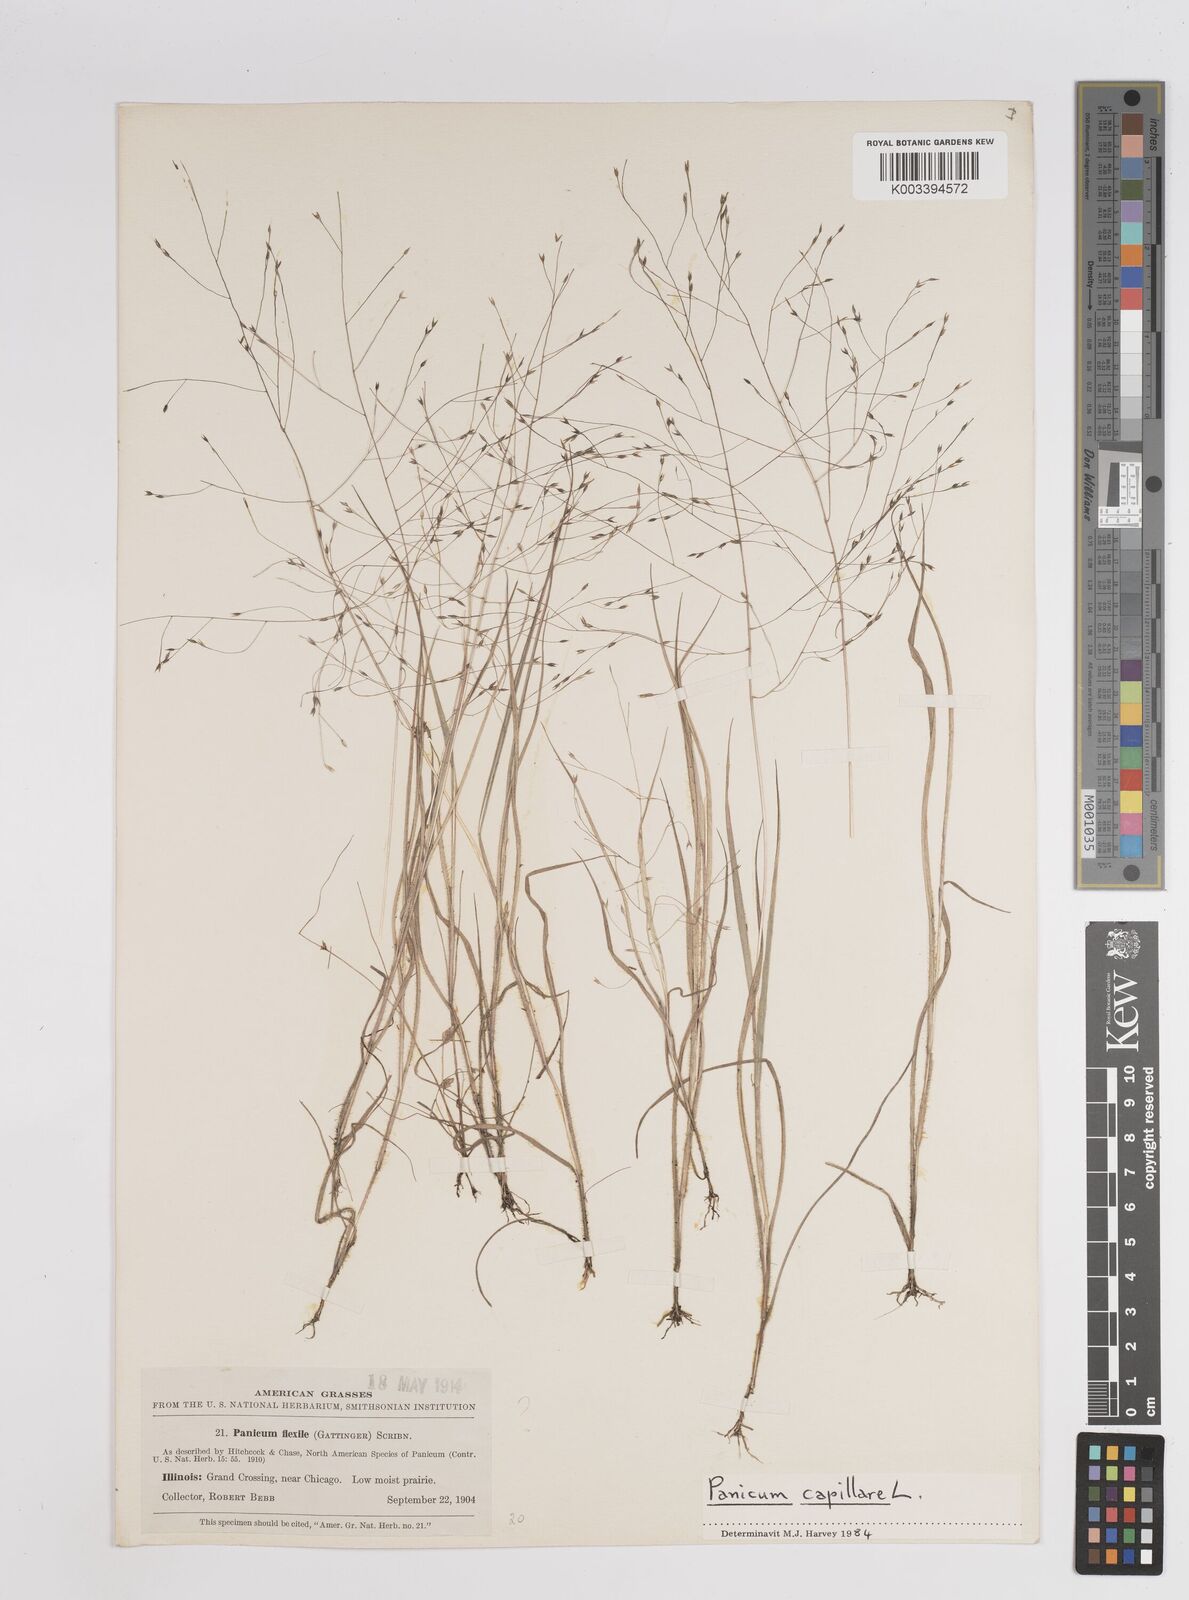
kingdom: Plantae
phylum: Tracheophyta
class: Liliopsida
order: Poales
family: Poaceae
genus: Panicum
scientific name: Panicum flexile
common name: Wiry panicgrass
